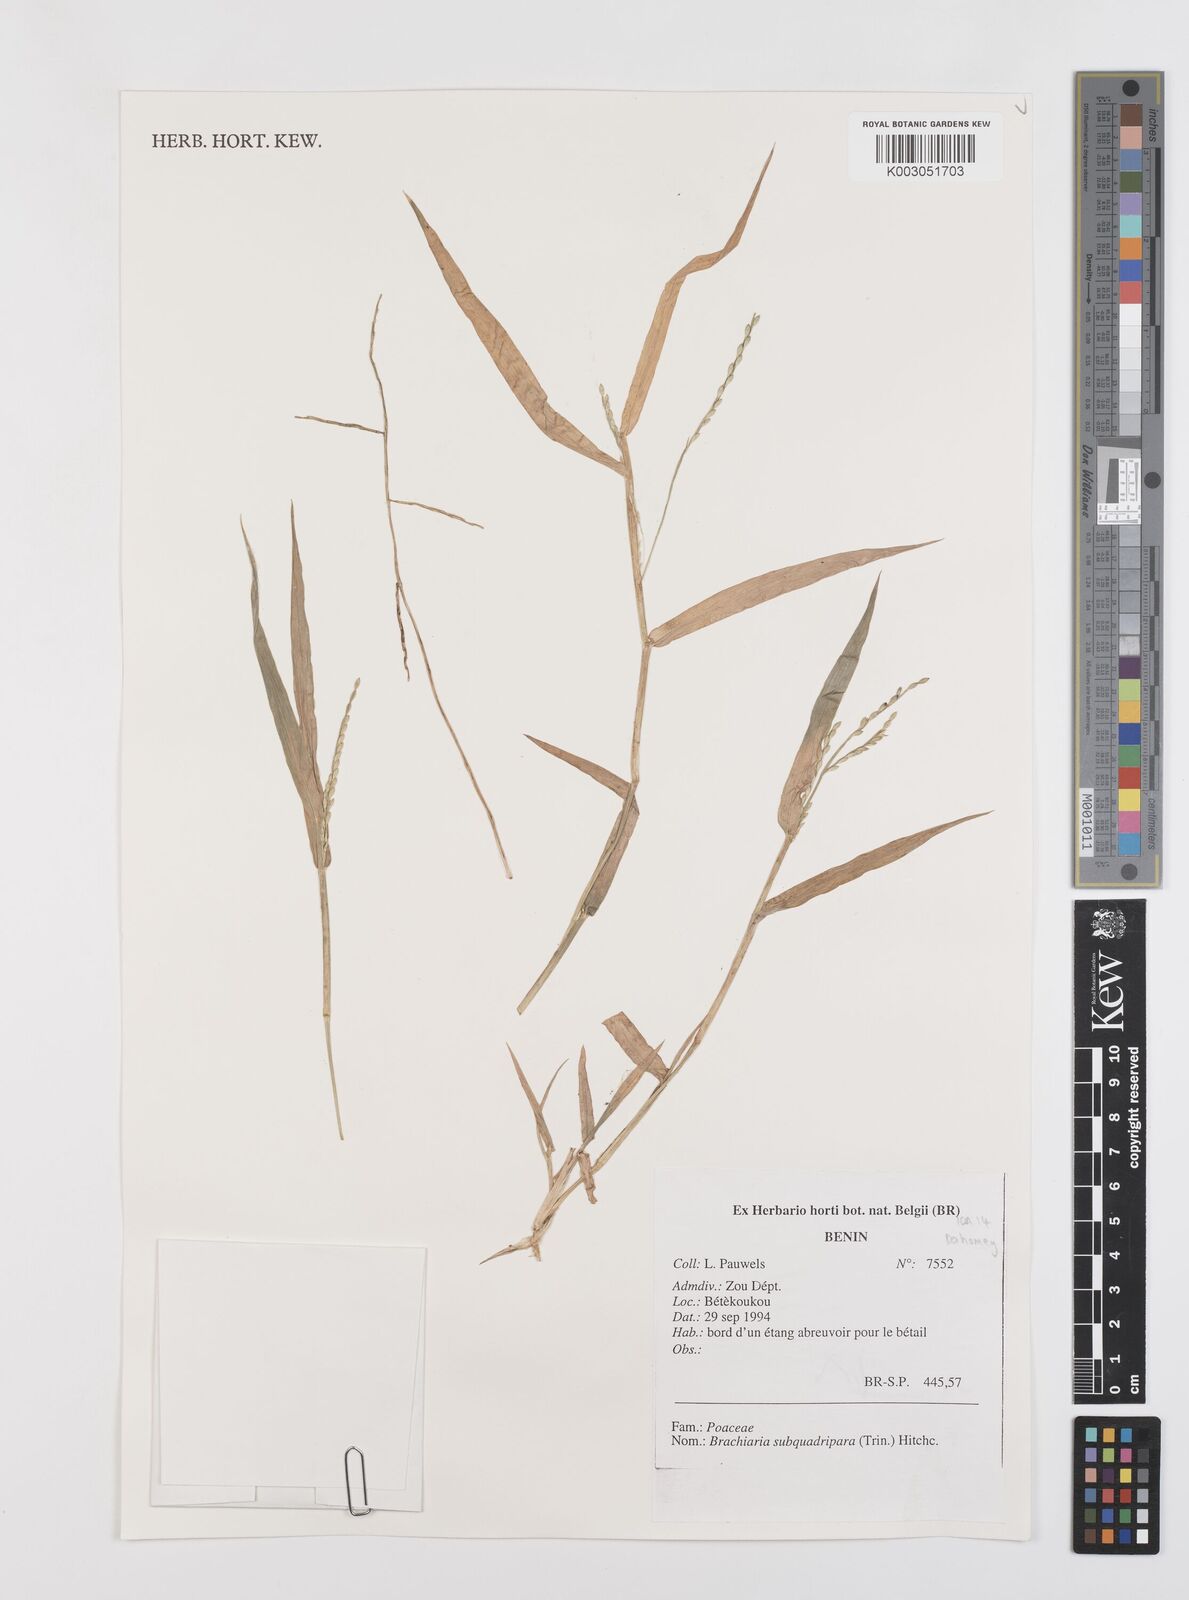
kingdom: Plantae
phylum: Tracheophyta
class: Liliopsida
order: Poales
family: Poaceae
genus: Urochloa
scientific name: Urochloa subquadripara
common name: Armgrass millet
